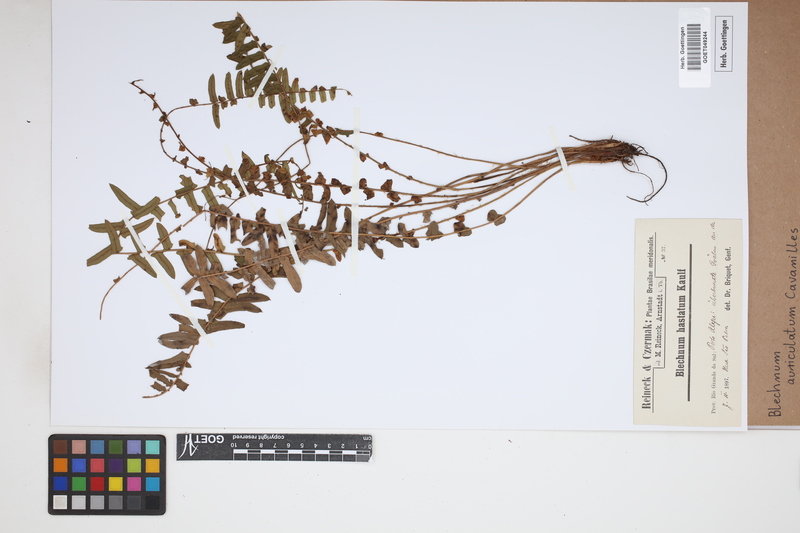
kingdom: Plantae
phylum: Tracheophyta
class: Polypodiopsida
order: Polypodiales
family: Blechnaceae
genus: Blechnum
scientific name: Blechnum auriculatum
